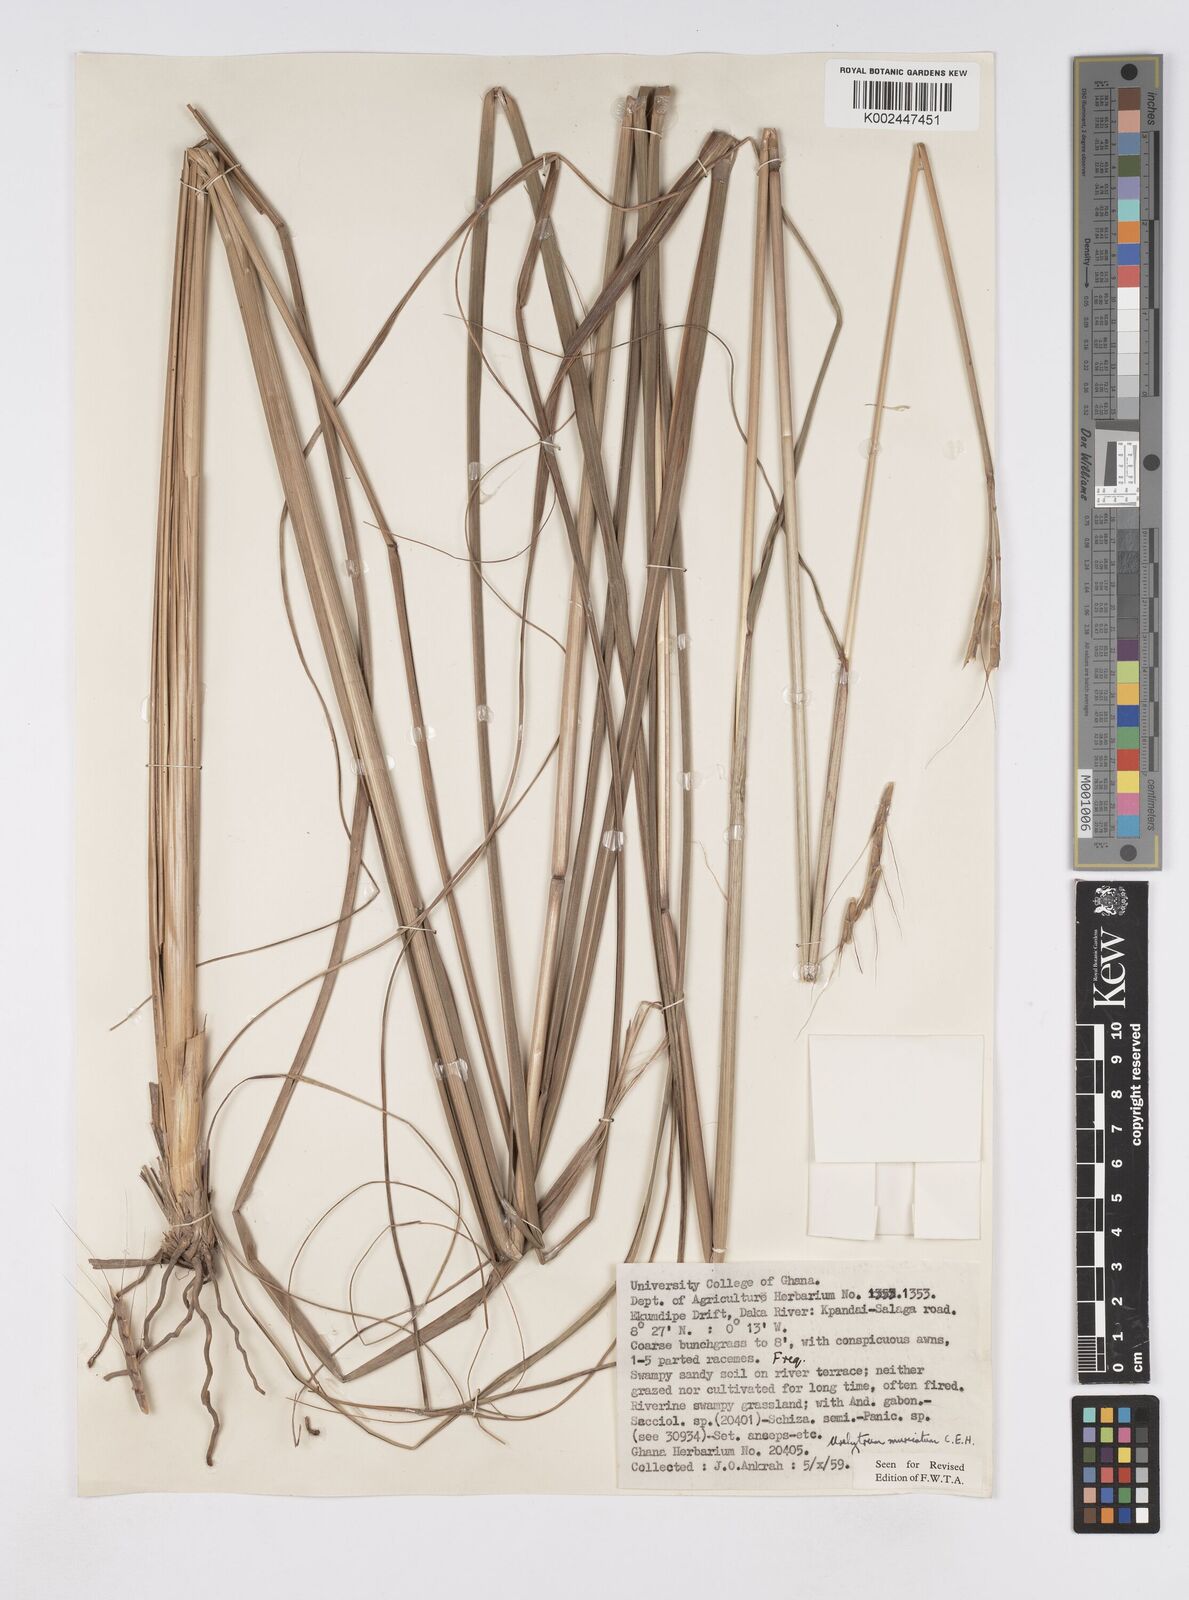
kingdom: Plantae
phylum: Tracheophyta
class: Liliopsida
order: Poales
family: Poaceae
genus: Urelytrum
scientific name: Urelytrum muricatum
